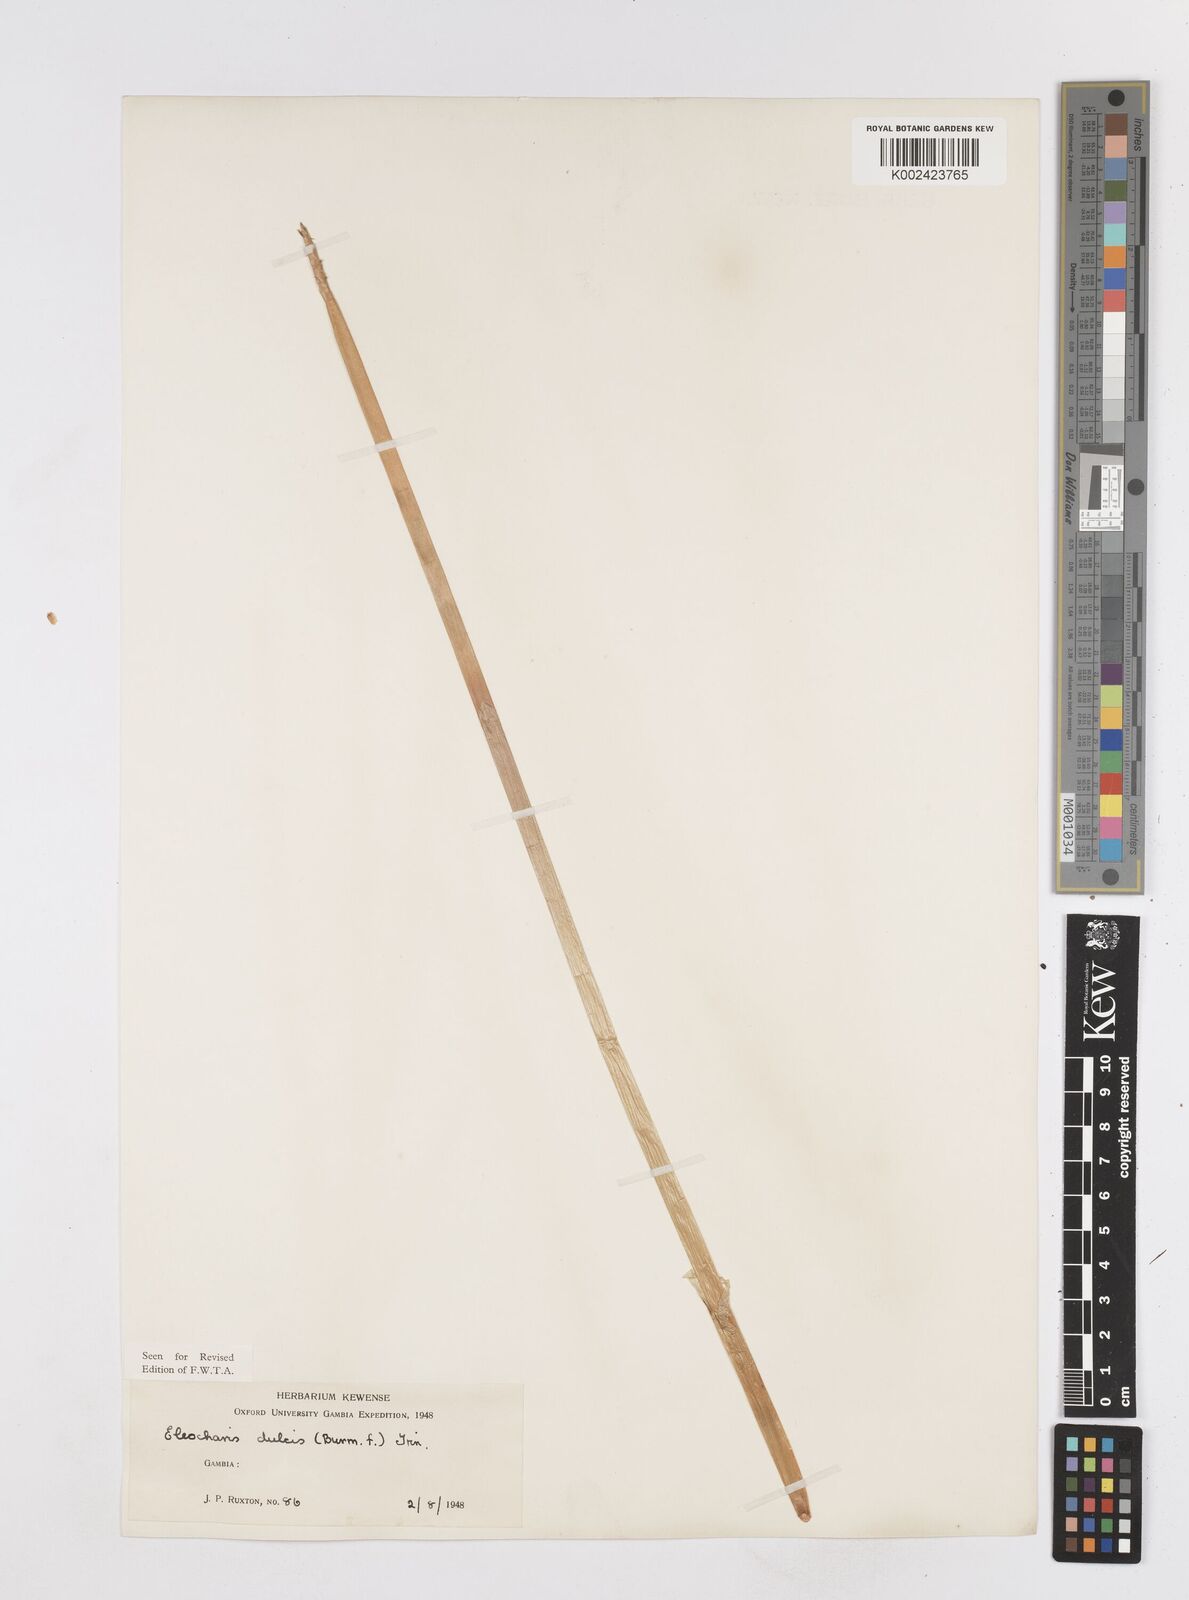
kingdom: Plantae
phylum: Tracheophyta
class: Liliopsida
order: Poales
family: Cyperaceae
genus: Eleocharis
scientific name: Eleocharis dulcis
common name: Chinese water chestnut
